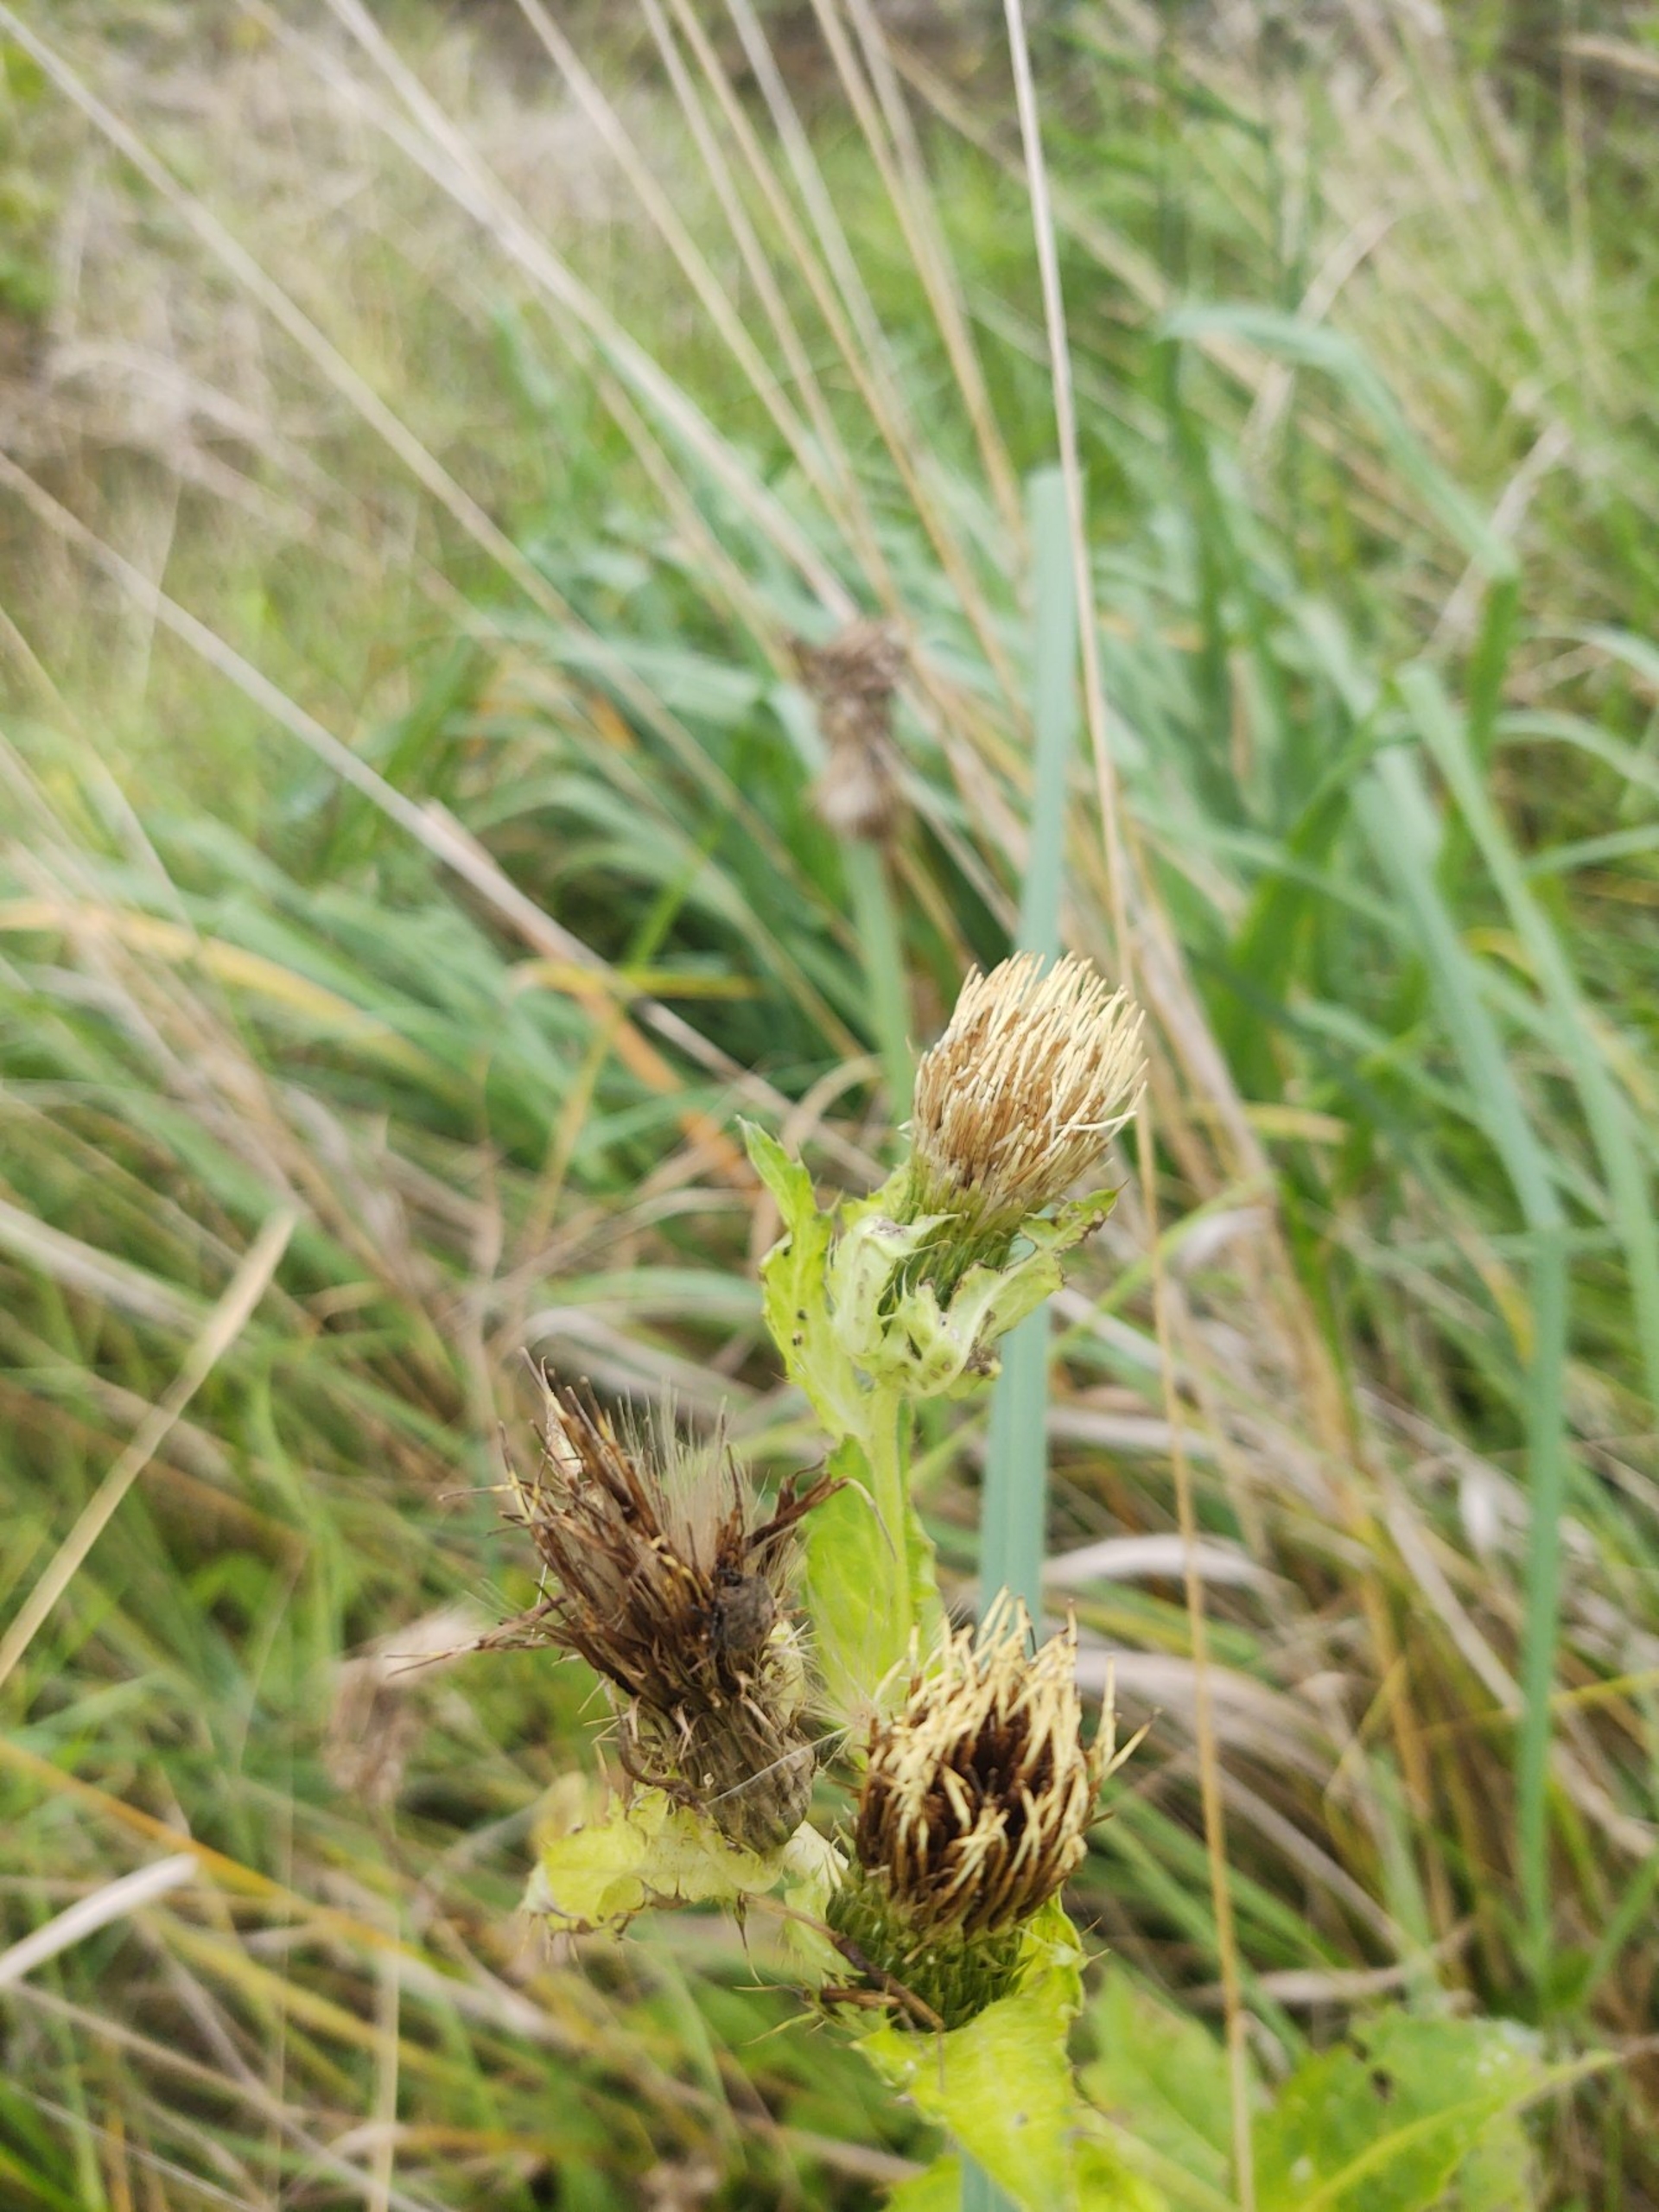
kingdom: Plantae
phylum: Tracheophyta
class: Magnoliopsida
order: Asterales
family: Asteraceae
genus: Cirsium
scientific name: Cirsium oleraceum
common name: Kål-tidsel
